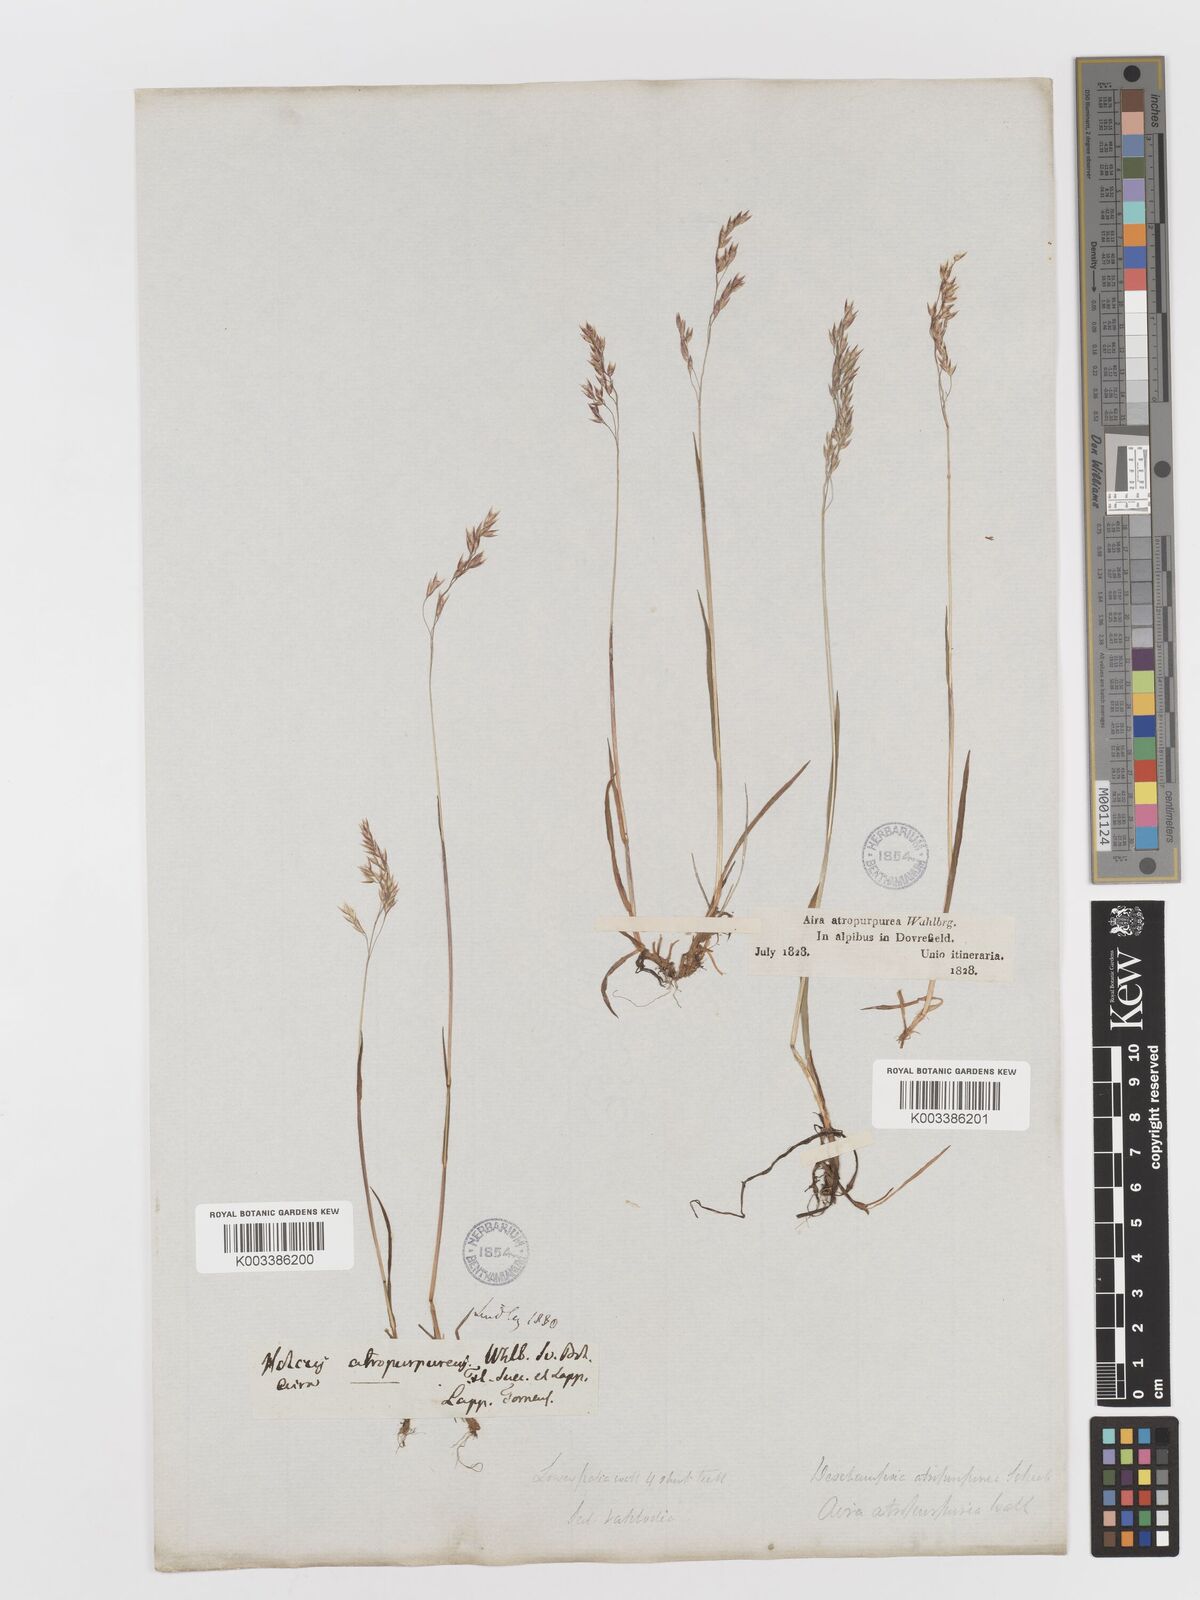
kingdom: Plantae
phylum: Tracheophyta
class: Liliopsida
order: Poales
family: Poaceae
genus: Vahlodea
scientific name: Vahlodea atropurpurea
